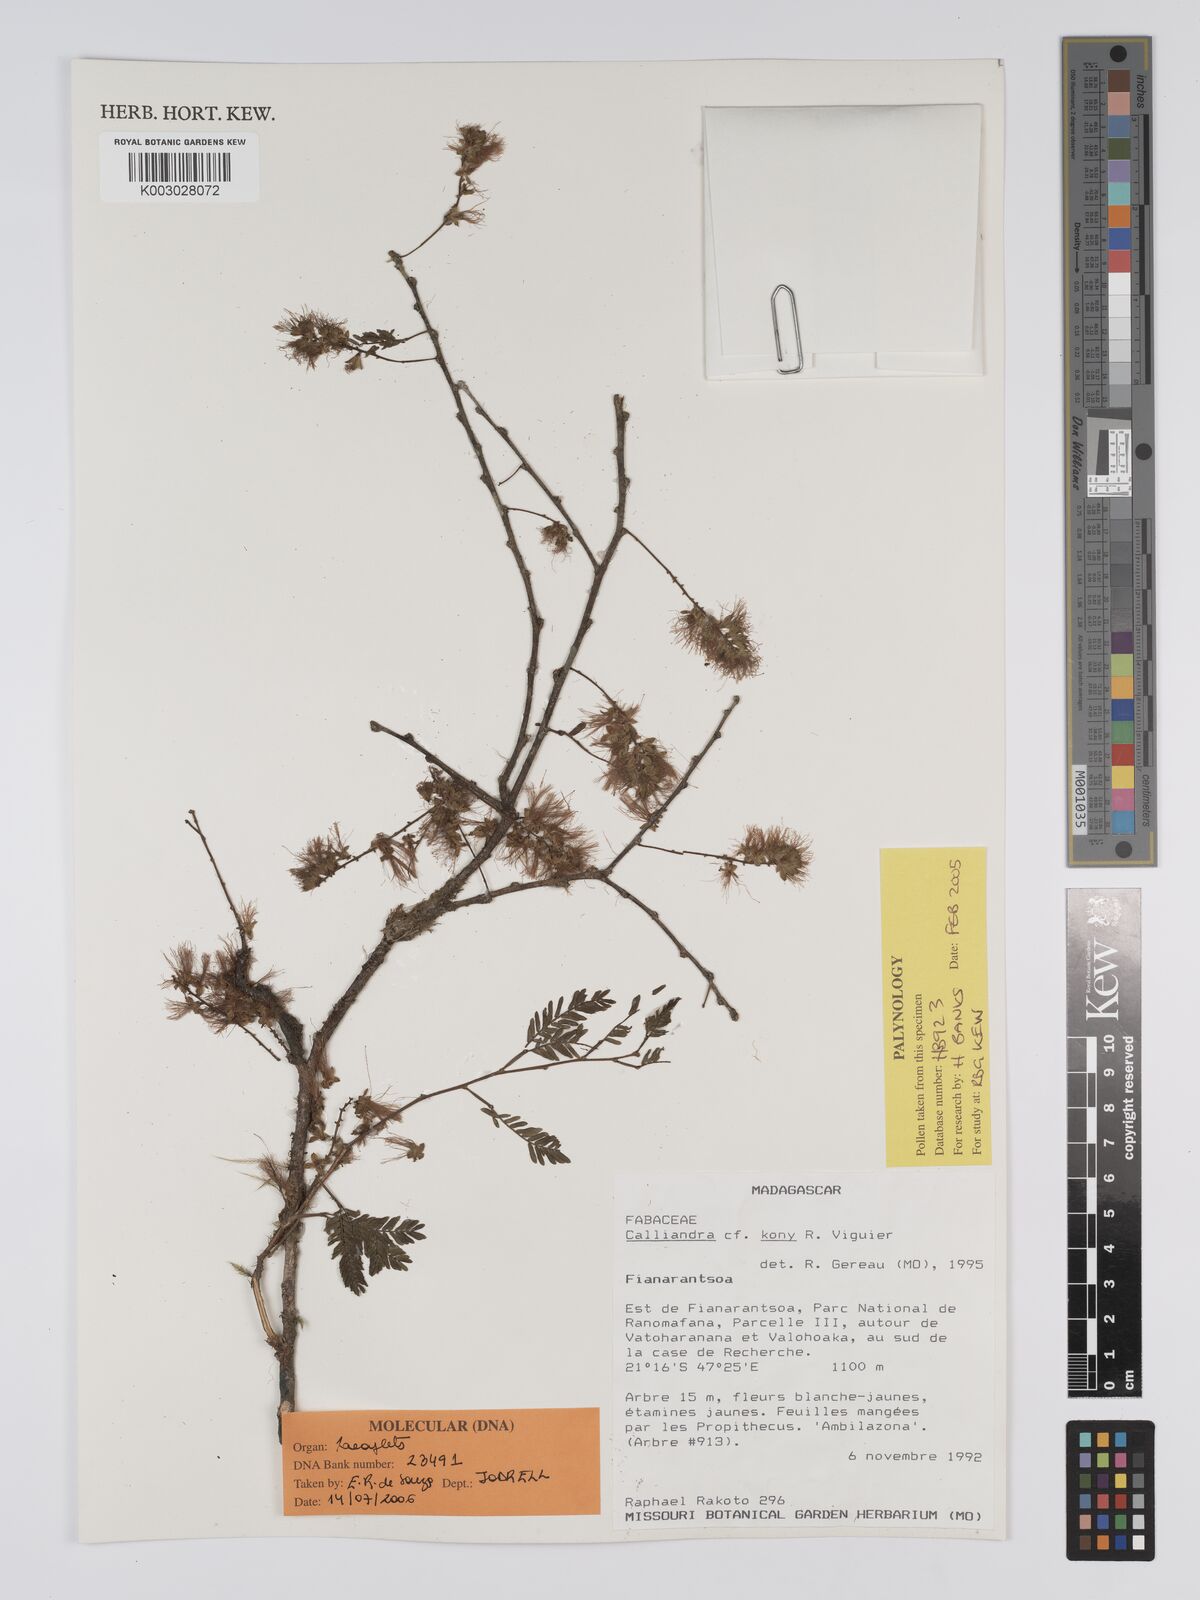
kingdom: Plantae
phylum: Tracheophyta
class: Magnoliopsida
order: Fabales
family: Fabaceae
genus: Viguieranthus
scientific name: Viguieranthus kony
